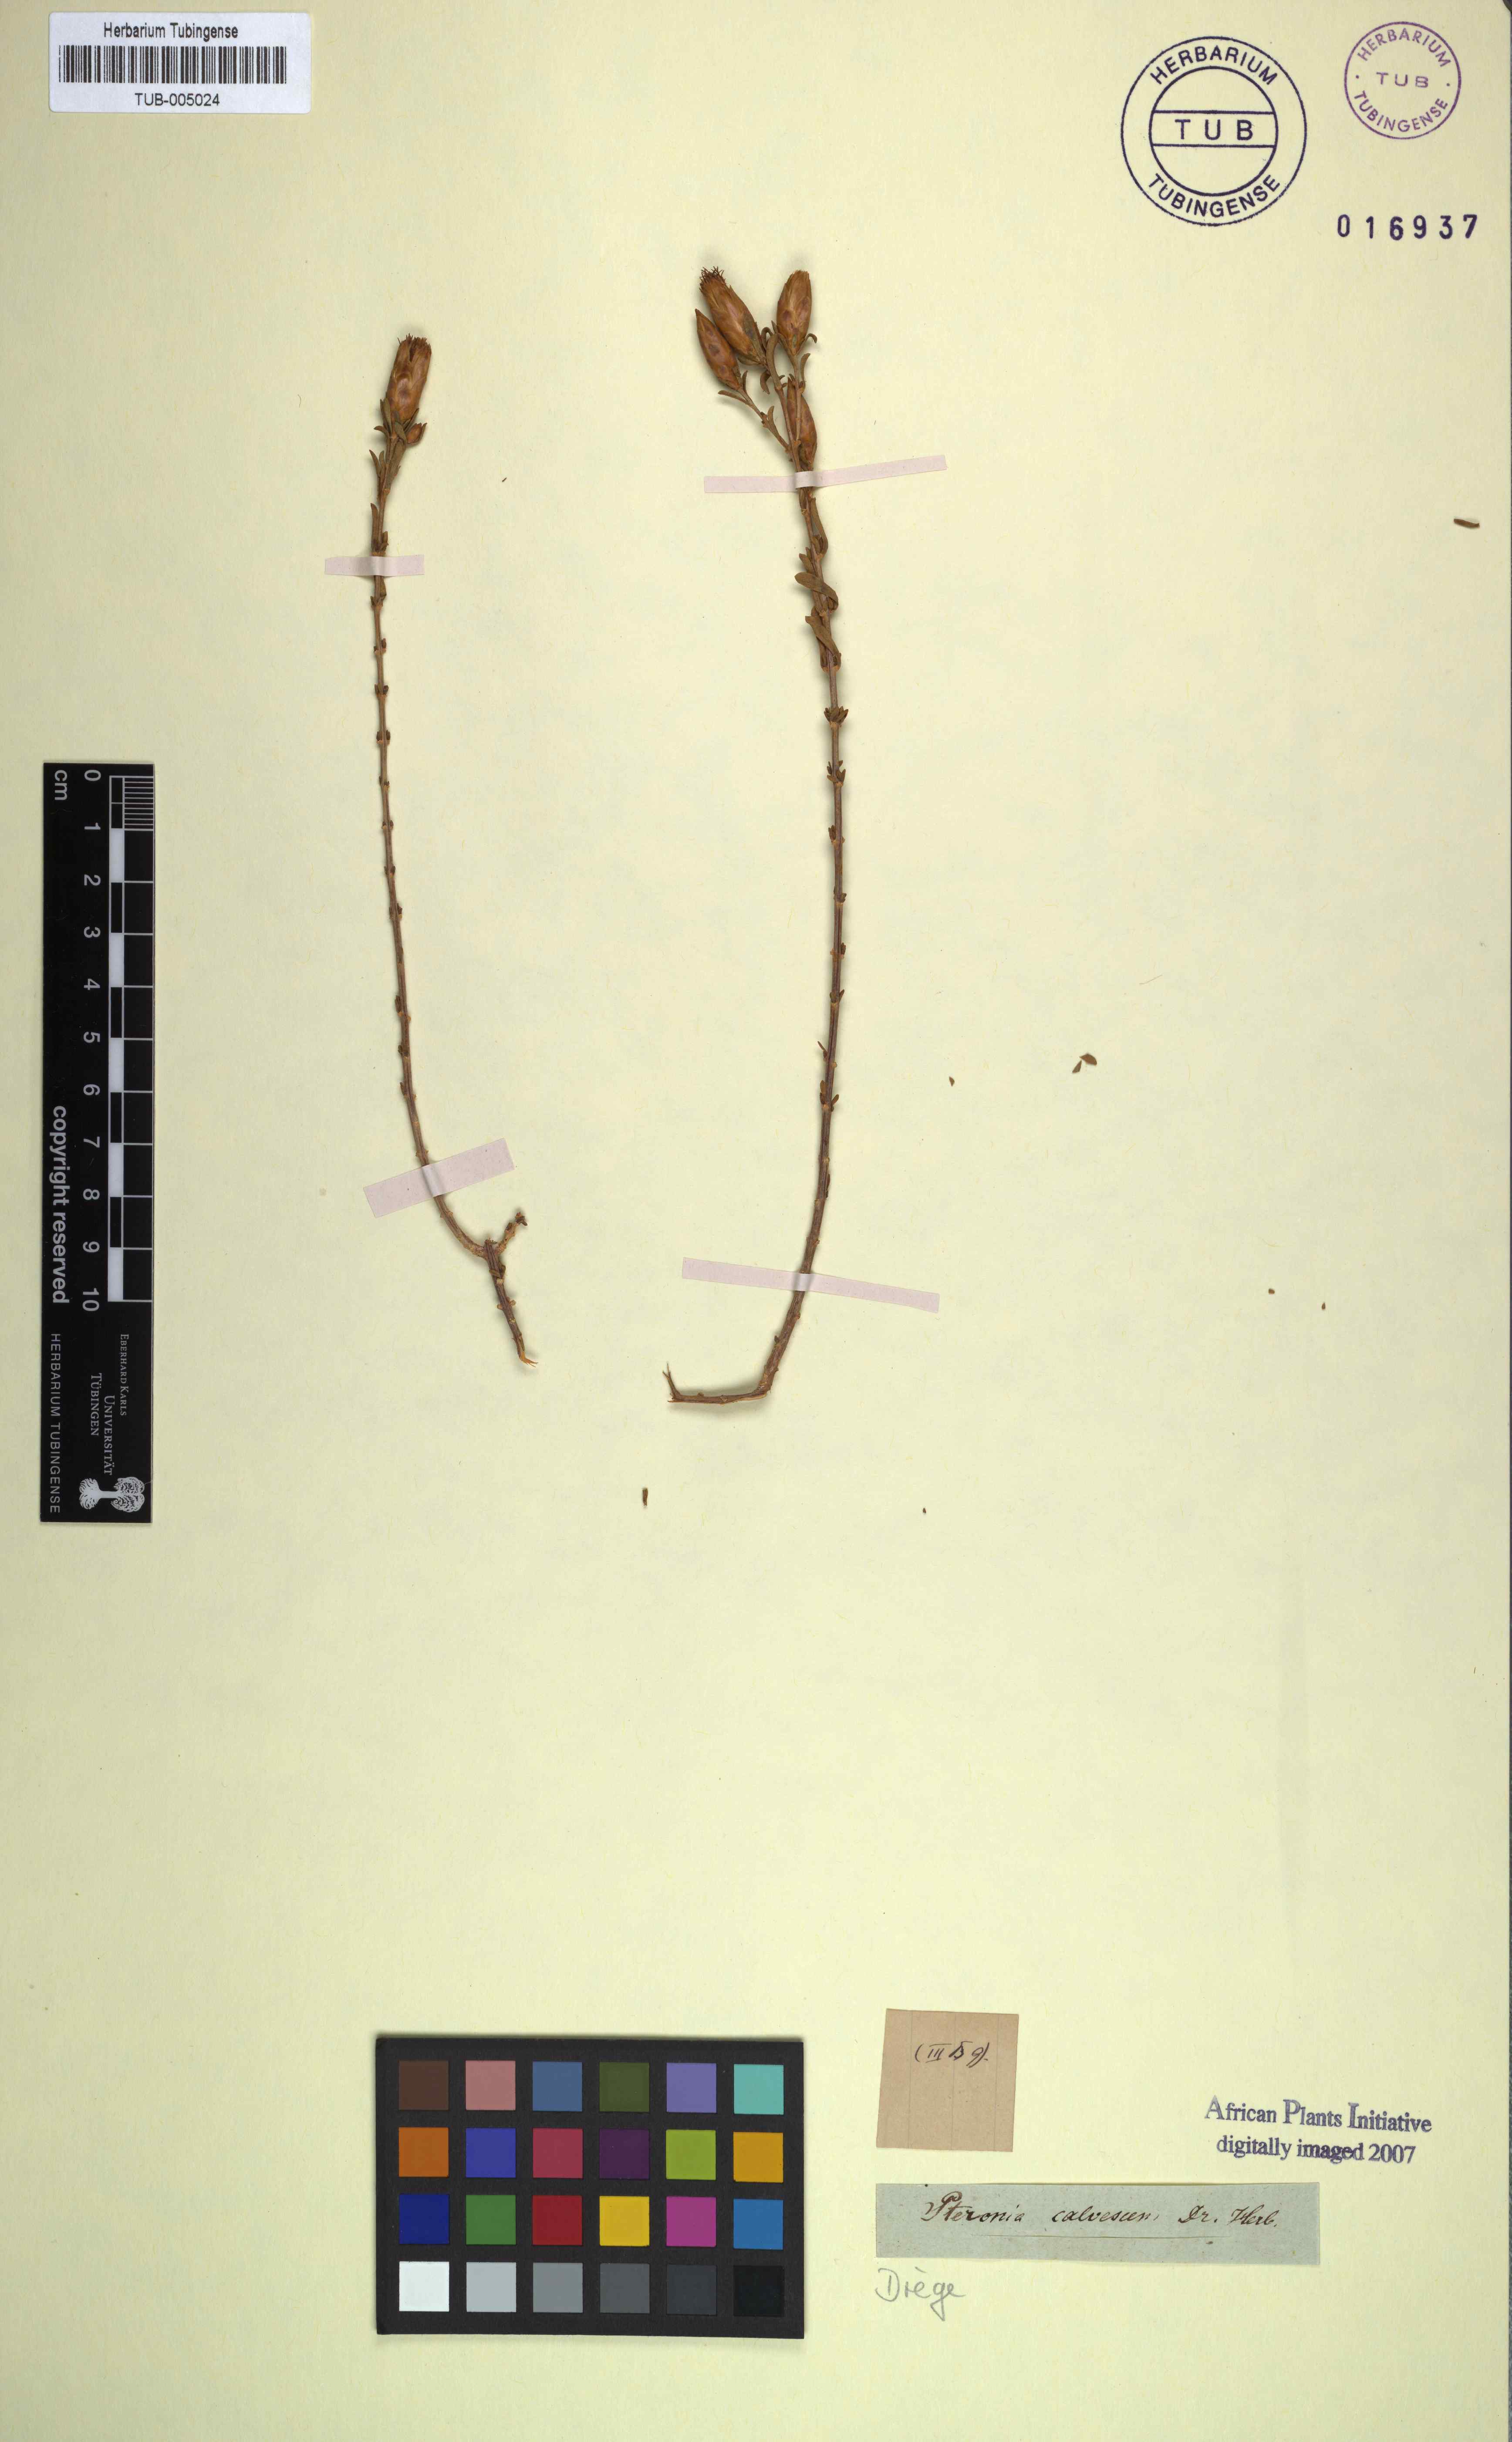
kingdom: Plantae
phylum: Tracheophyta
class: Magnoliopsida
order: Asterales
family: Asteraceae
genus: Pteronia
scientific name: Pteronia gymnocline
